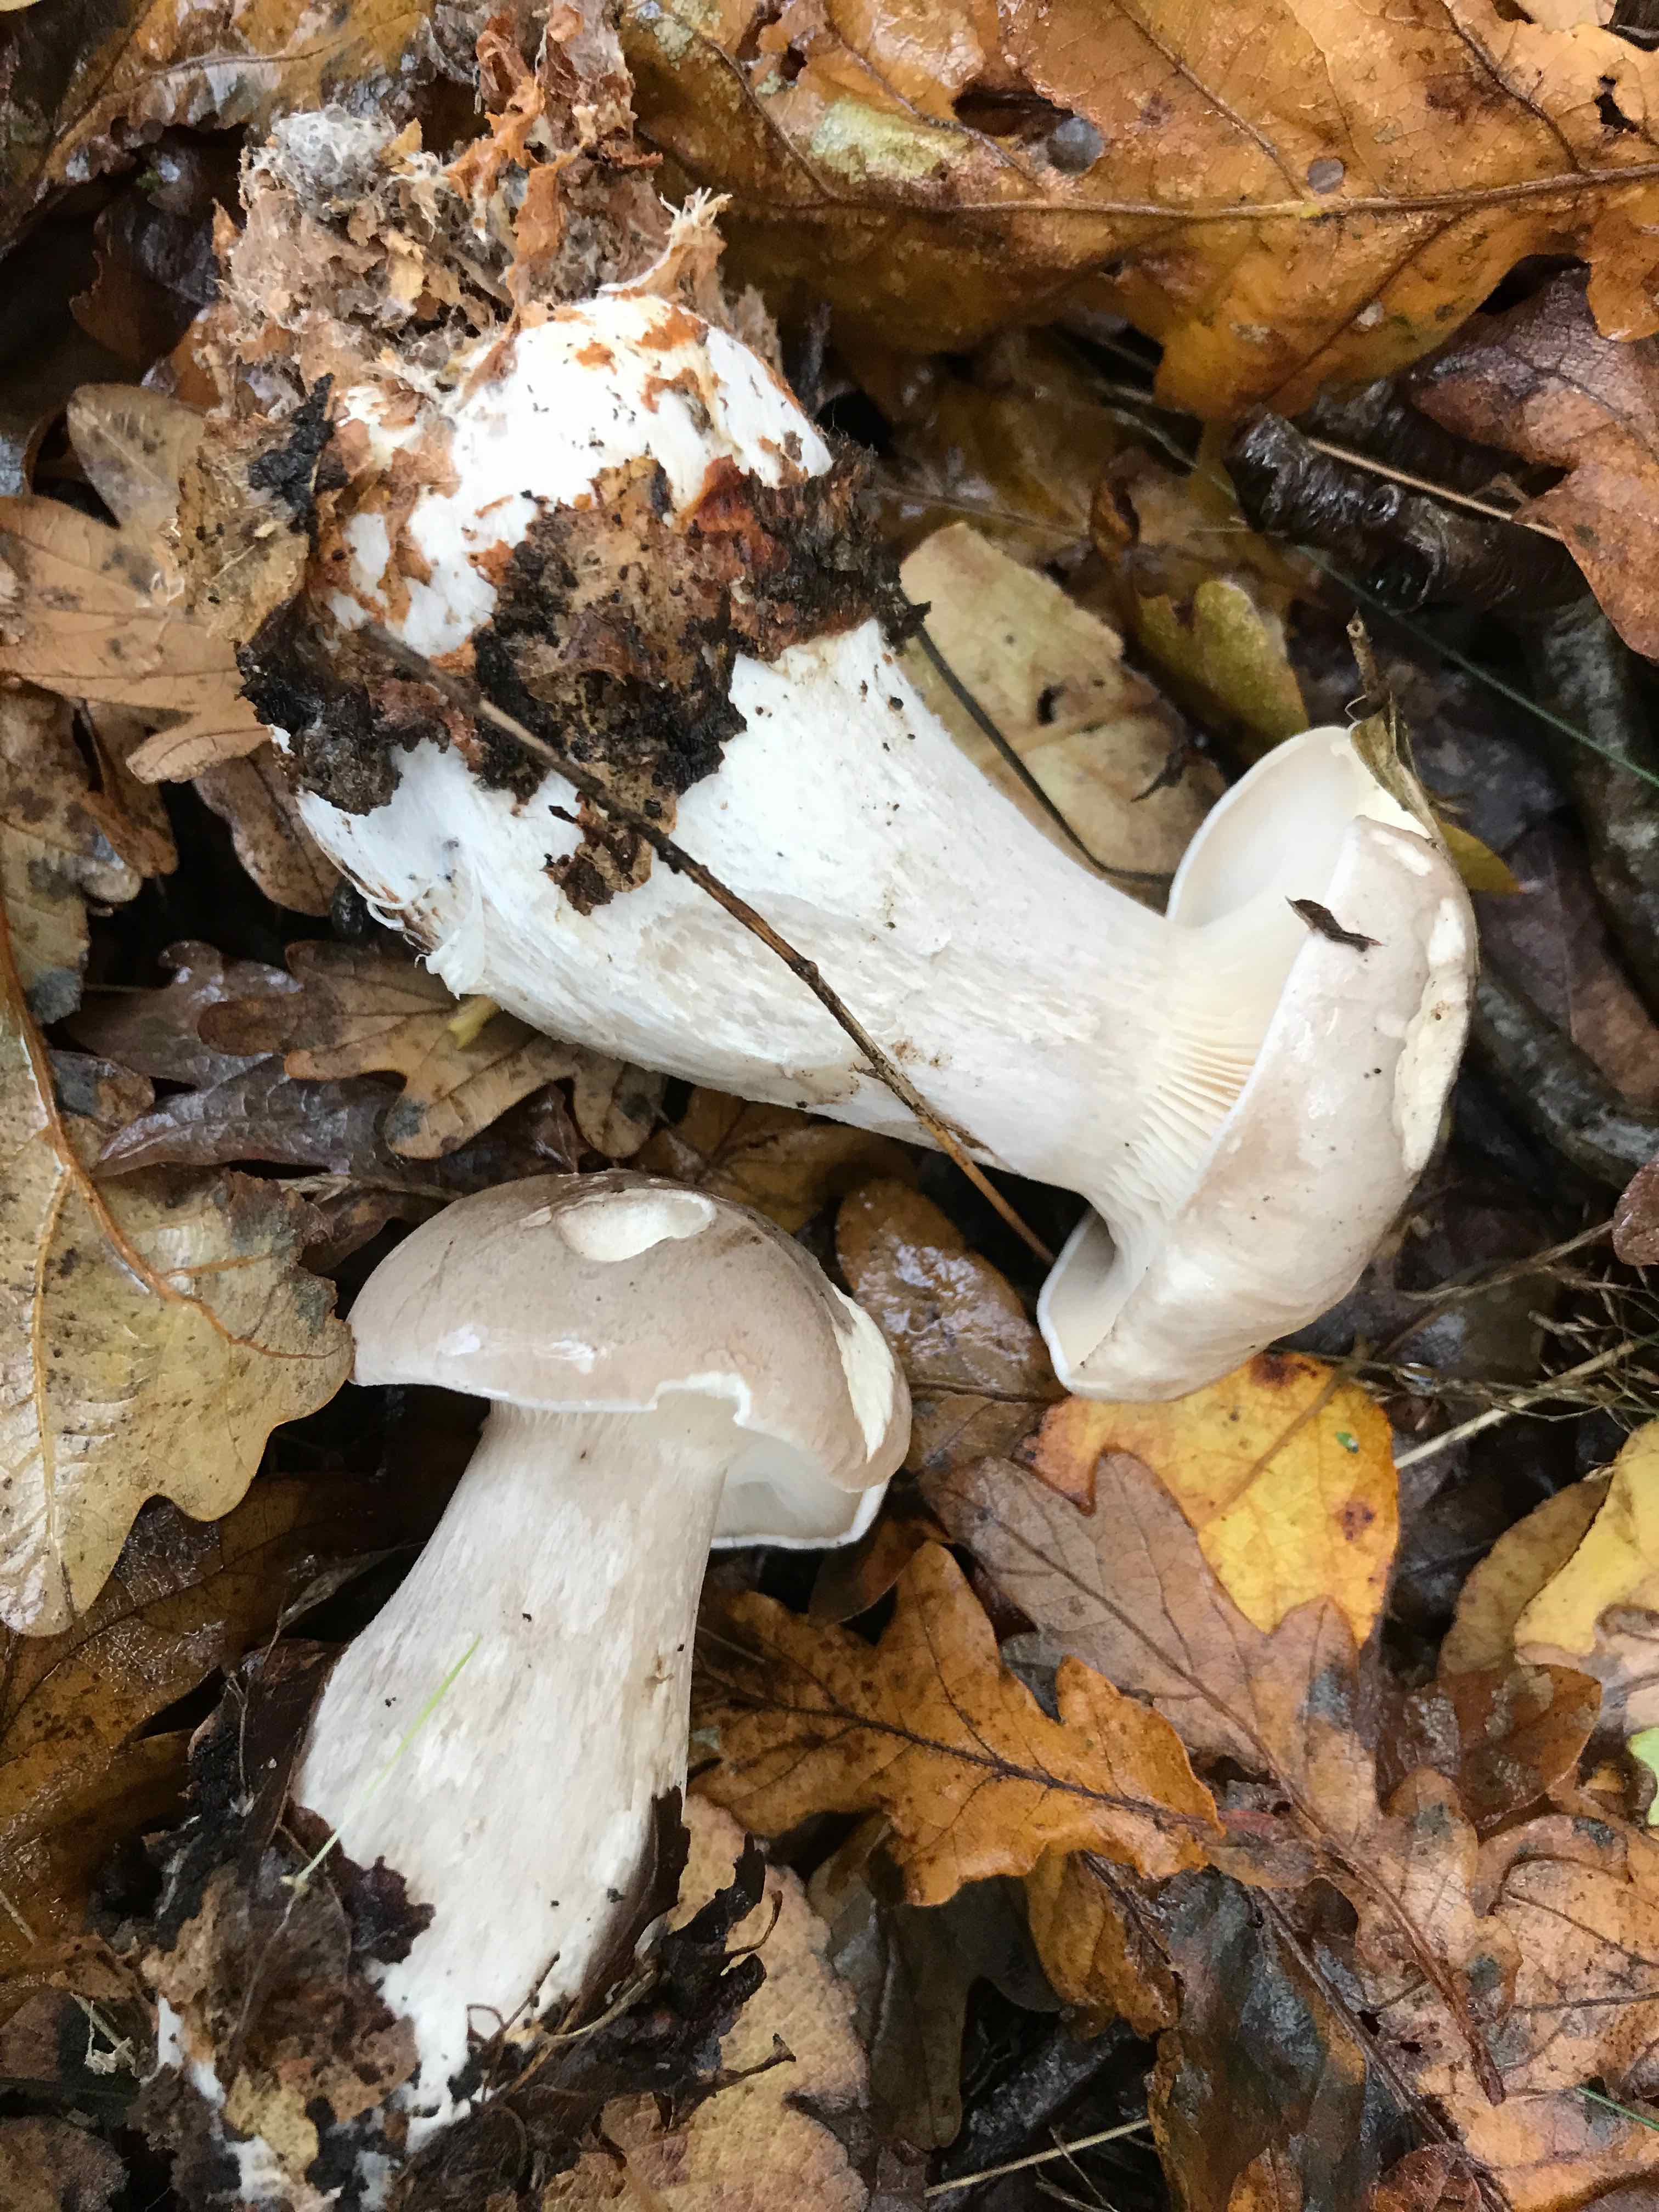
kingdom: Fungi
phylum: Basidiomycota
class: Agaricomycetes
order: Agaricales
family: Tricholomataceae
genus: Clitocybe
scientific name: Clitocybe nebularis
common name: tåge-tragthat
